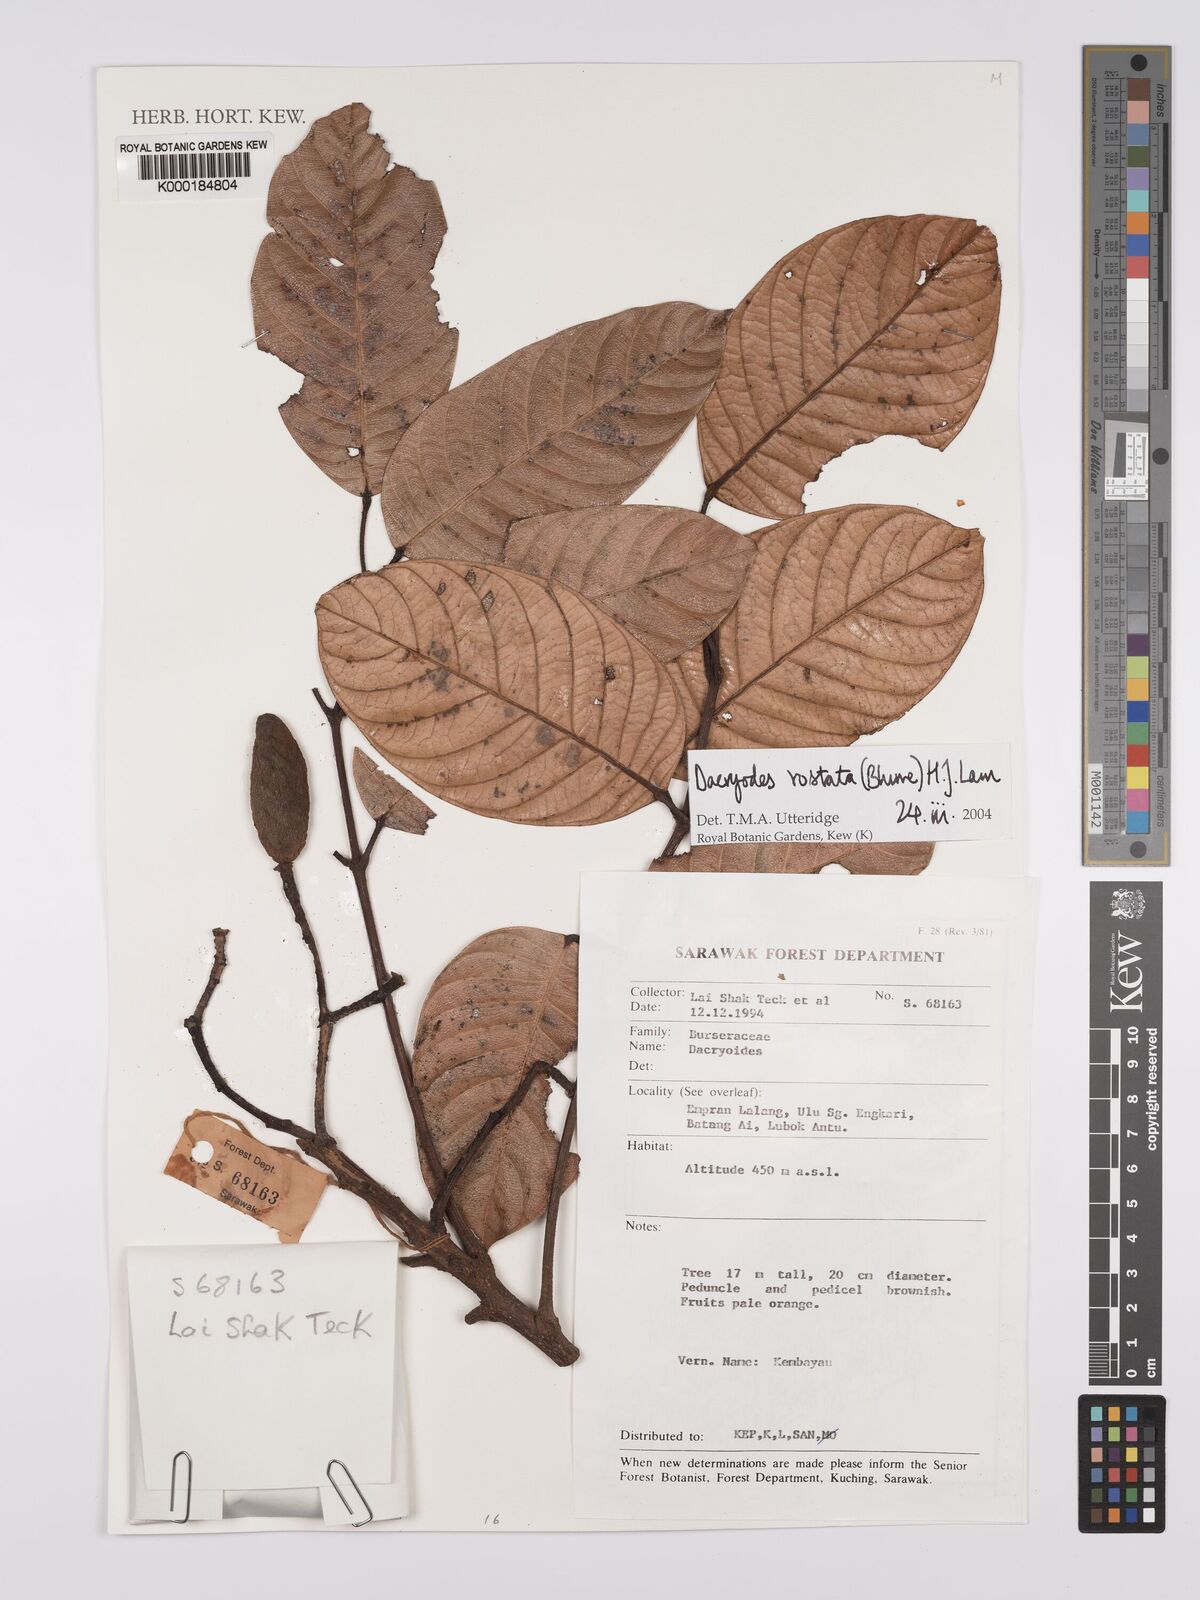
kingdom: Plantae
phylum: Tracheophyta
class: Magnoliopsida
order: Sapindales
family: Burseraceae
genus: Dacryodes
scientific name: Dacryodes rostrata
